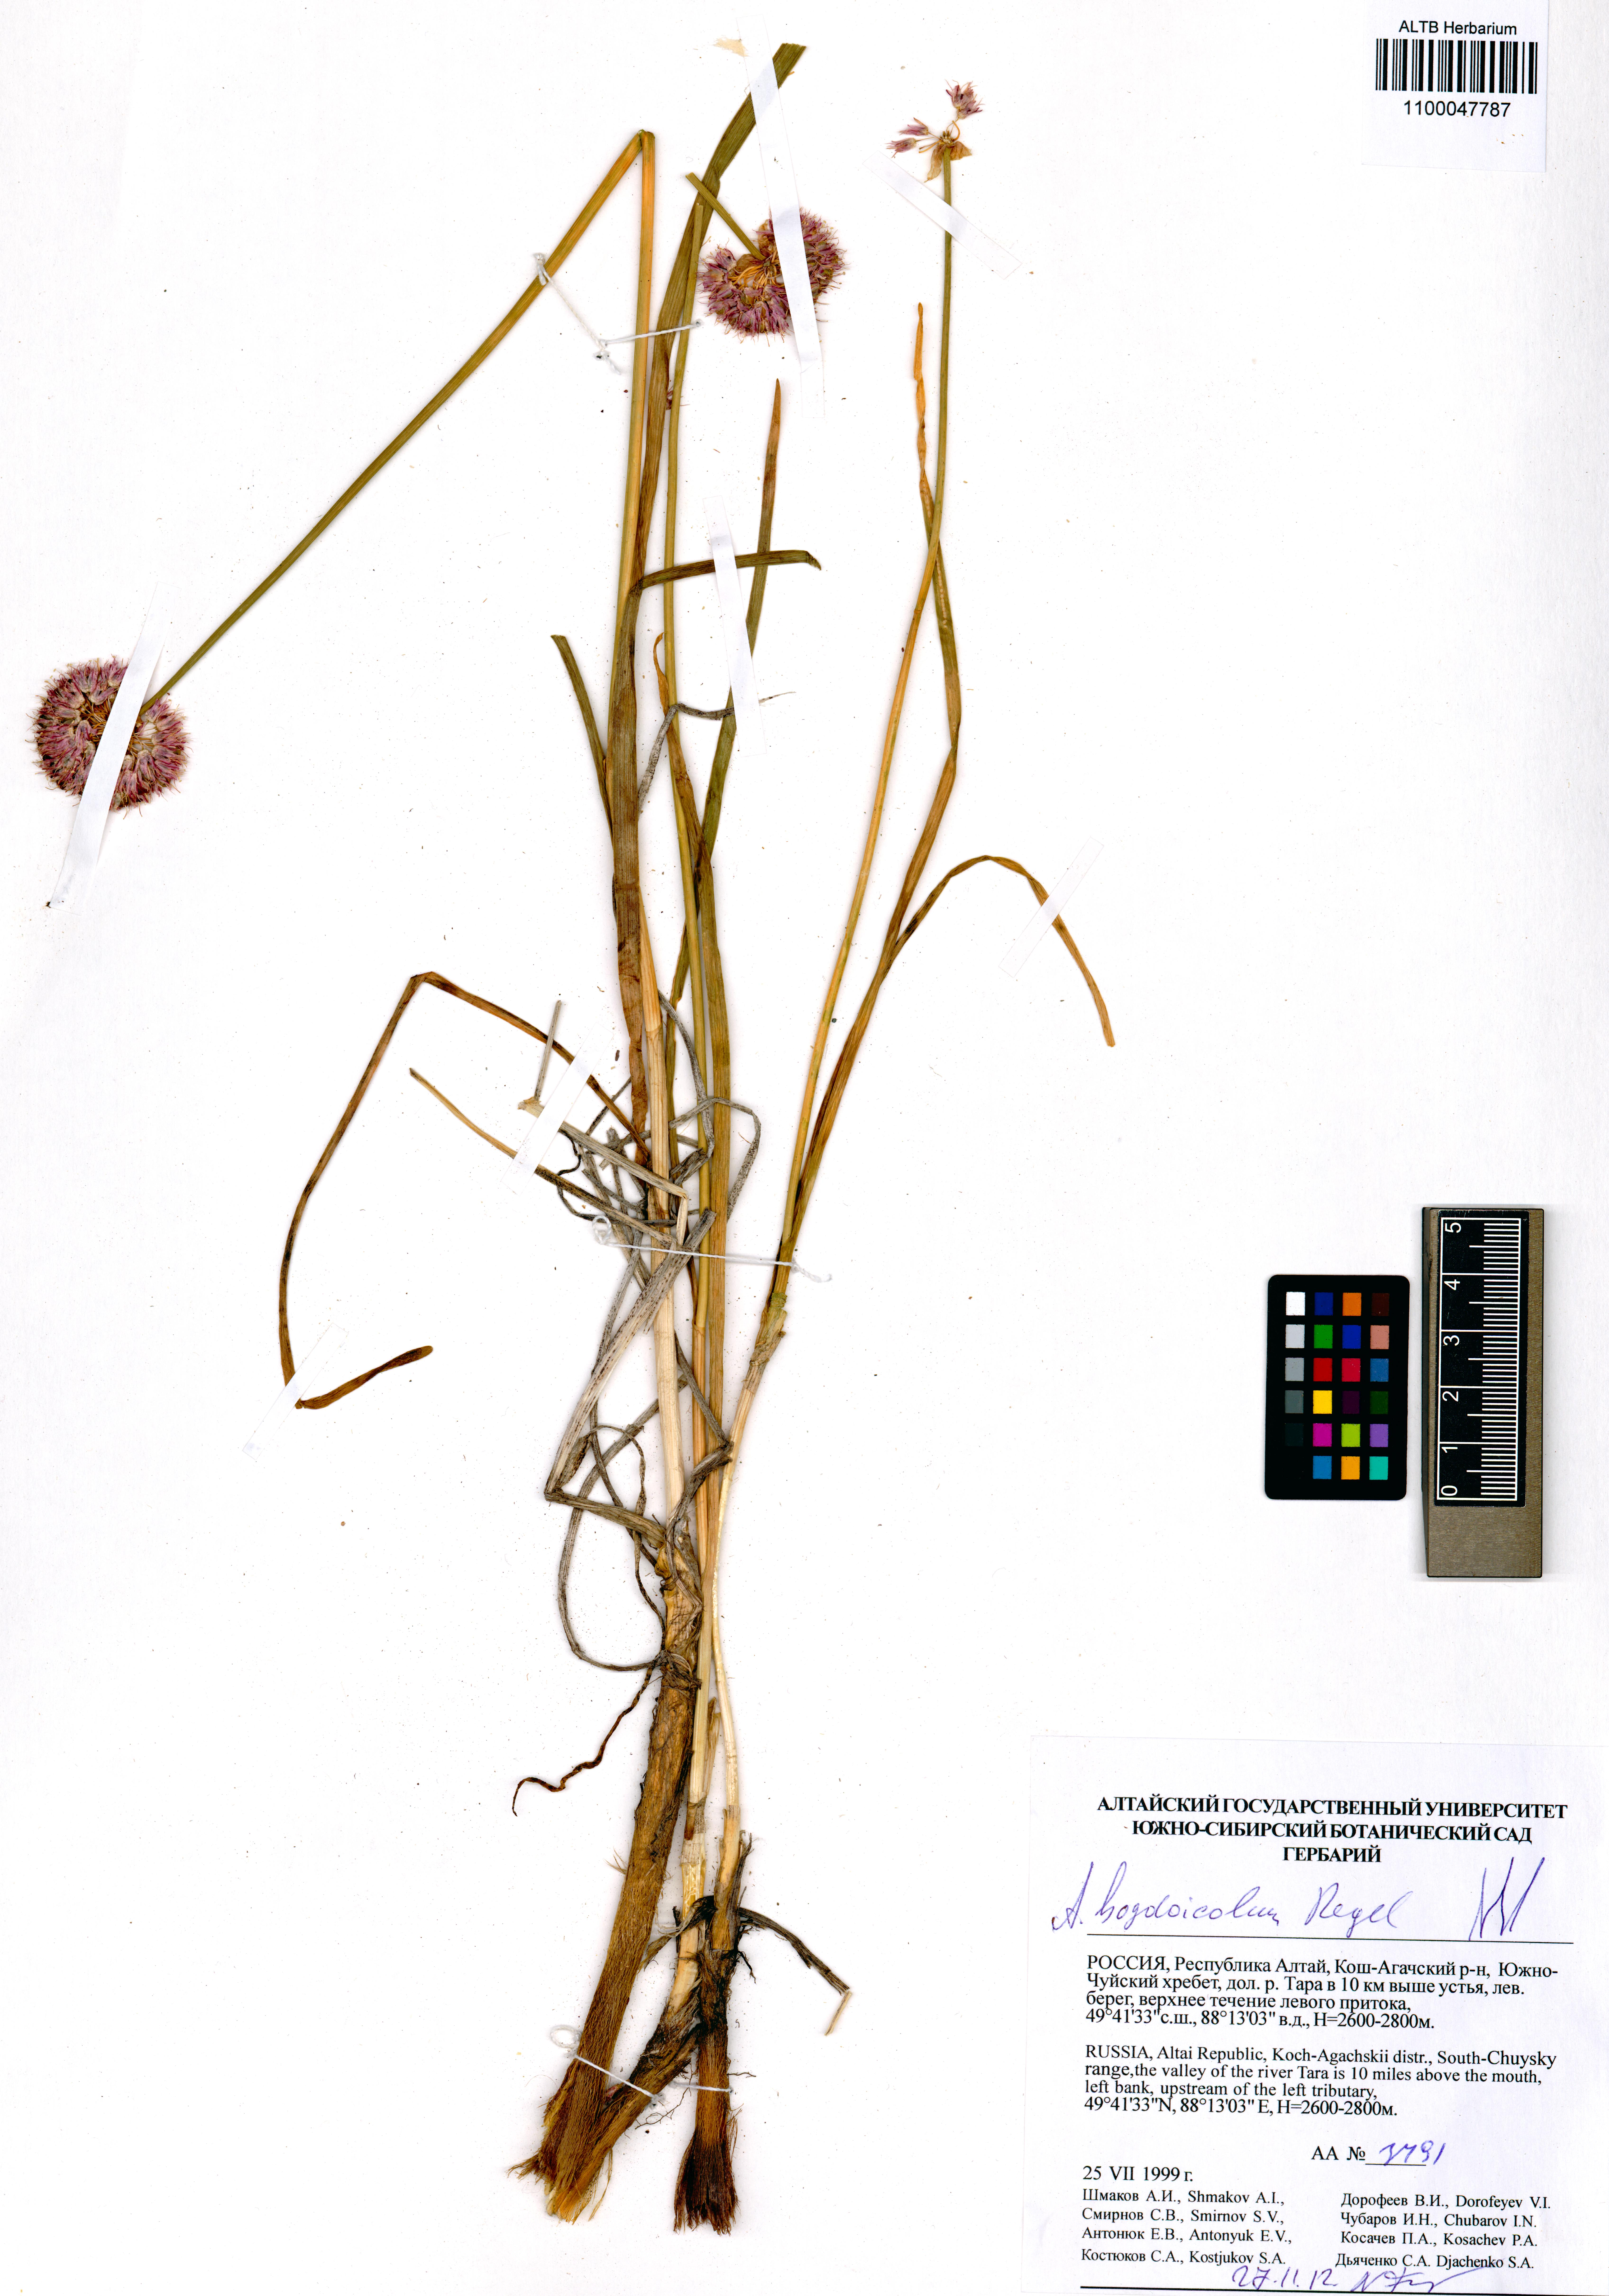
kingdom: Plantae
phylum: Tracheophyta
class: Liliopsida
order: Asparagales
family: Amaryllidaceae
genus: Allium
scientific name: Allium schrenkii
